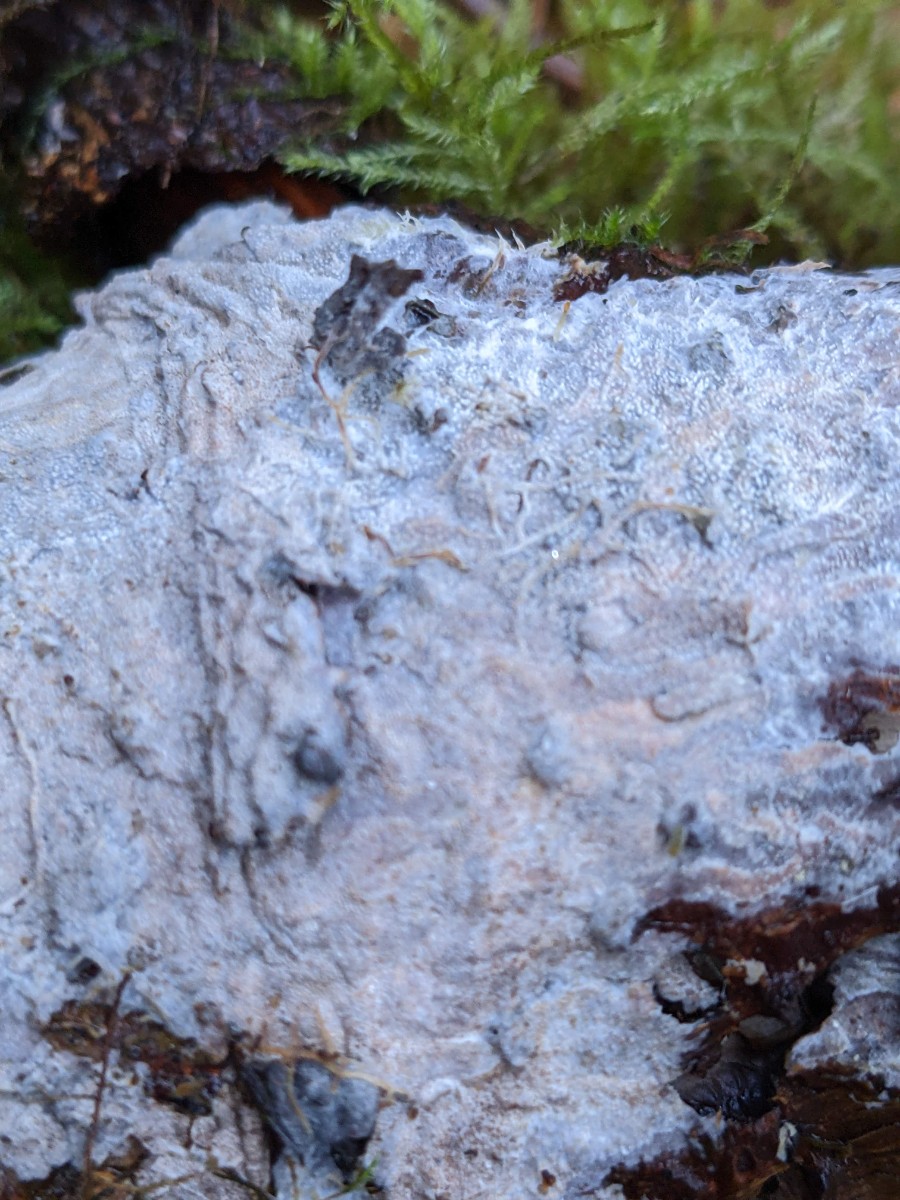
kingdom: Fungi
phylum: Basidiomycota
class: Agaricomycetes
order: Hymenochaetales
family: Rickenellaceae
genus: Resinicium
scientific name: Resinicium bicolor
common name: almindelig vokstand
